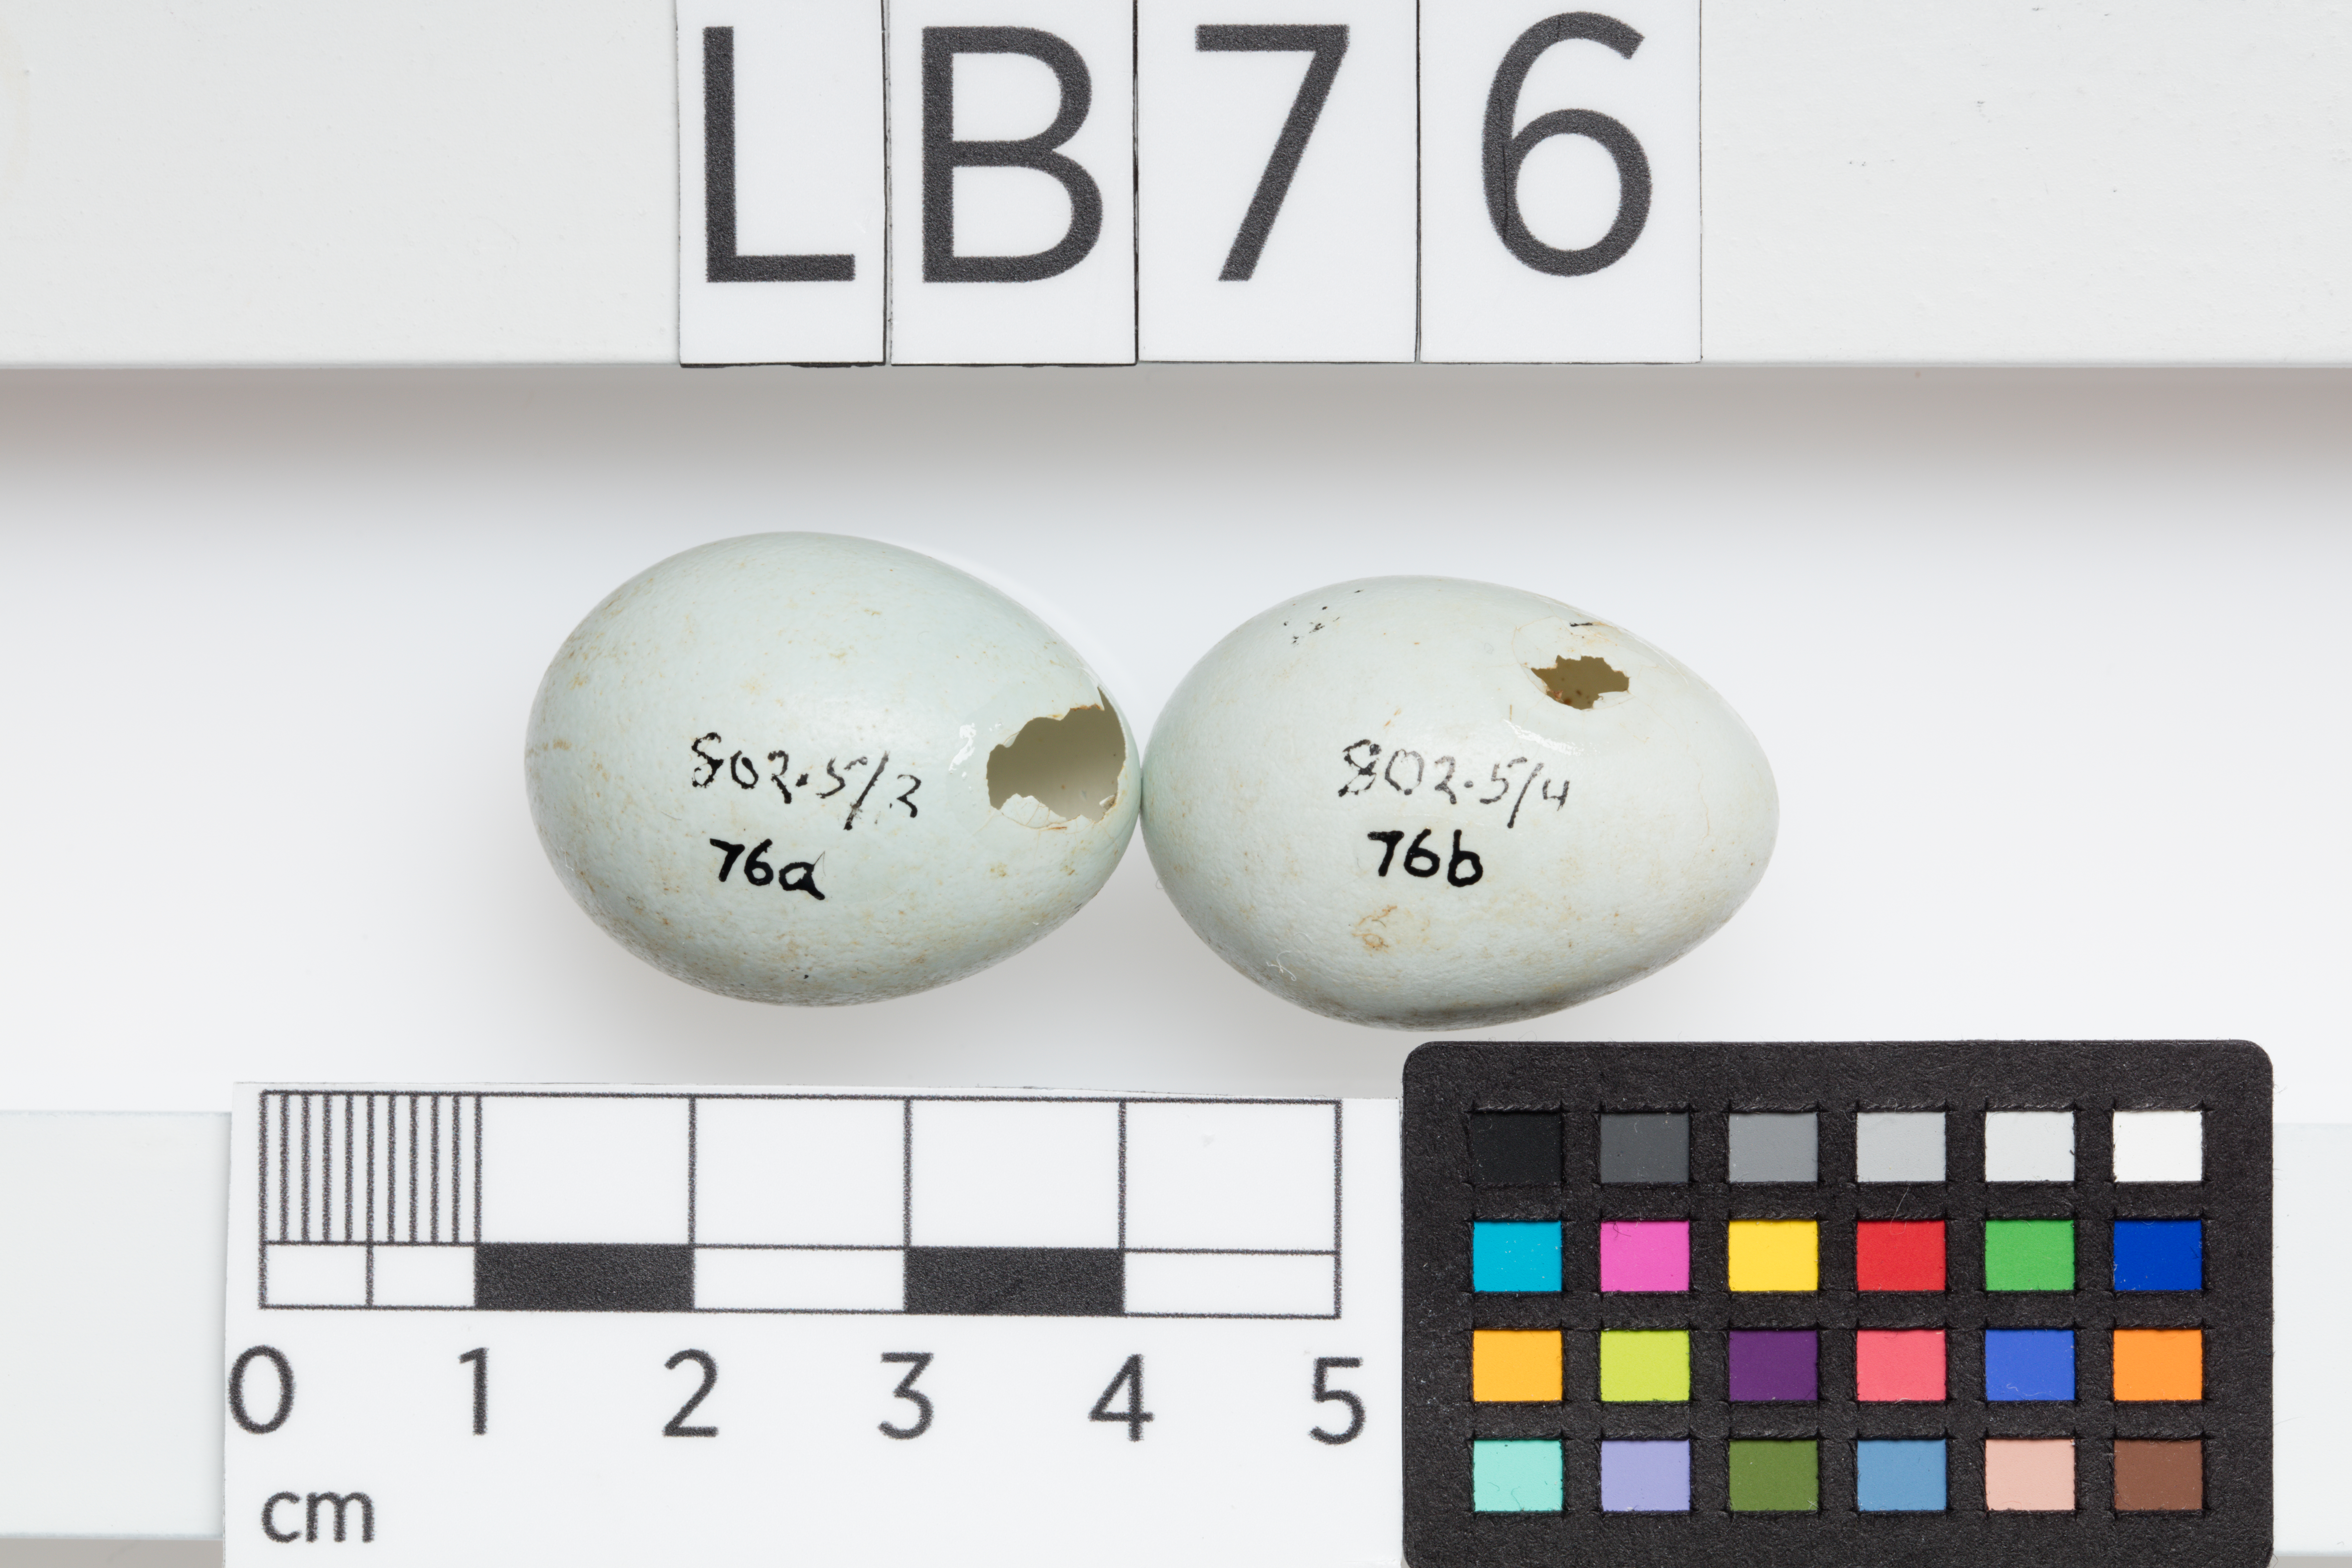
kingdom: Animalia
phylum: Chordata
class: Aves
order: Passeriformes
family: Sturnidae
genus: Acridotheres
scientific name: Acridotheres tristis
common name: Common myna
